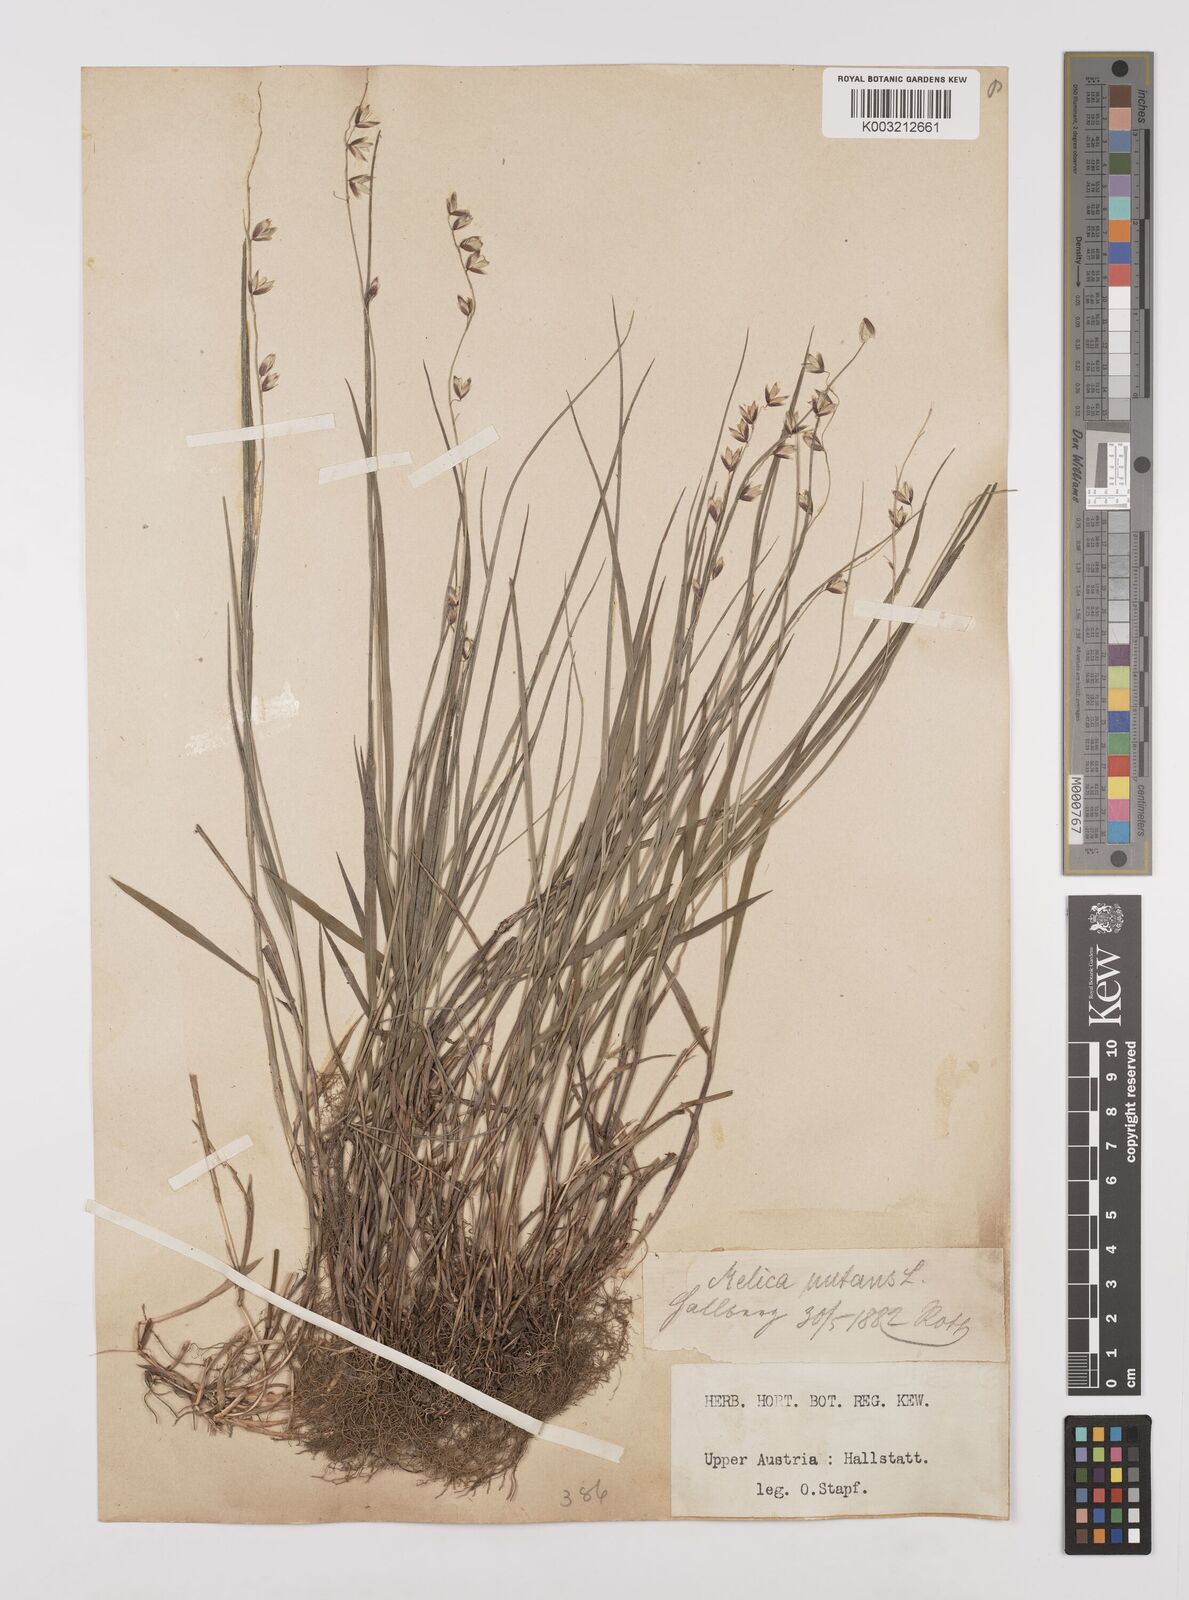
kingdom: Plantae
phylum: Tracheophyta
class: Liliopsida
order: Poales
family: Poaceae
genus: Melica
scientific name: Melica
